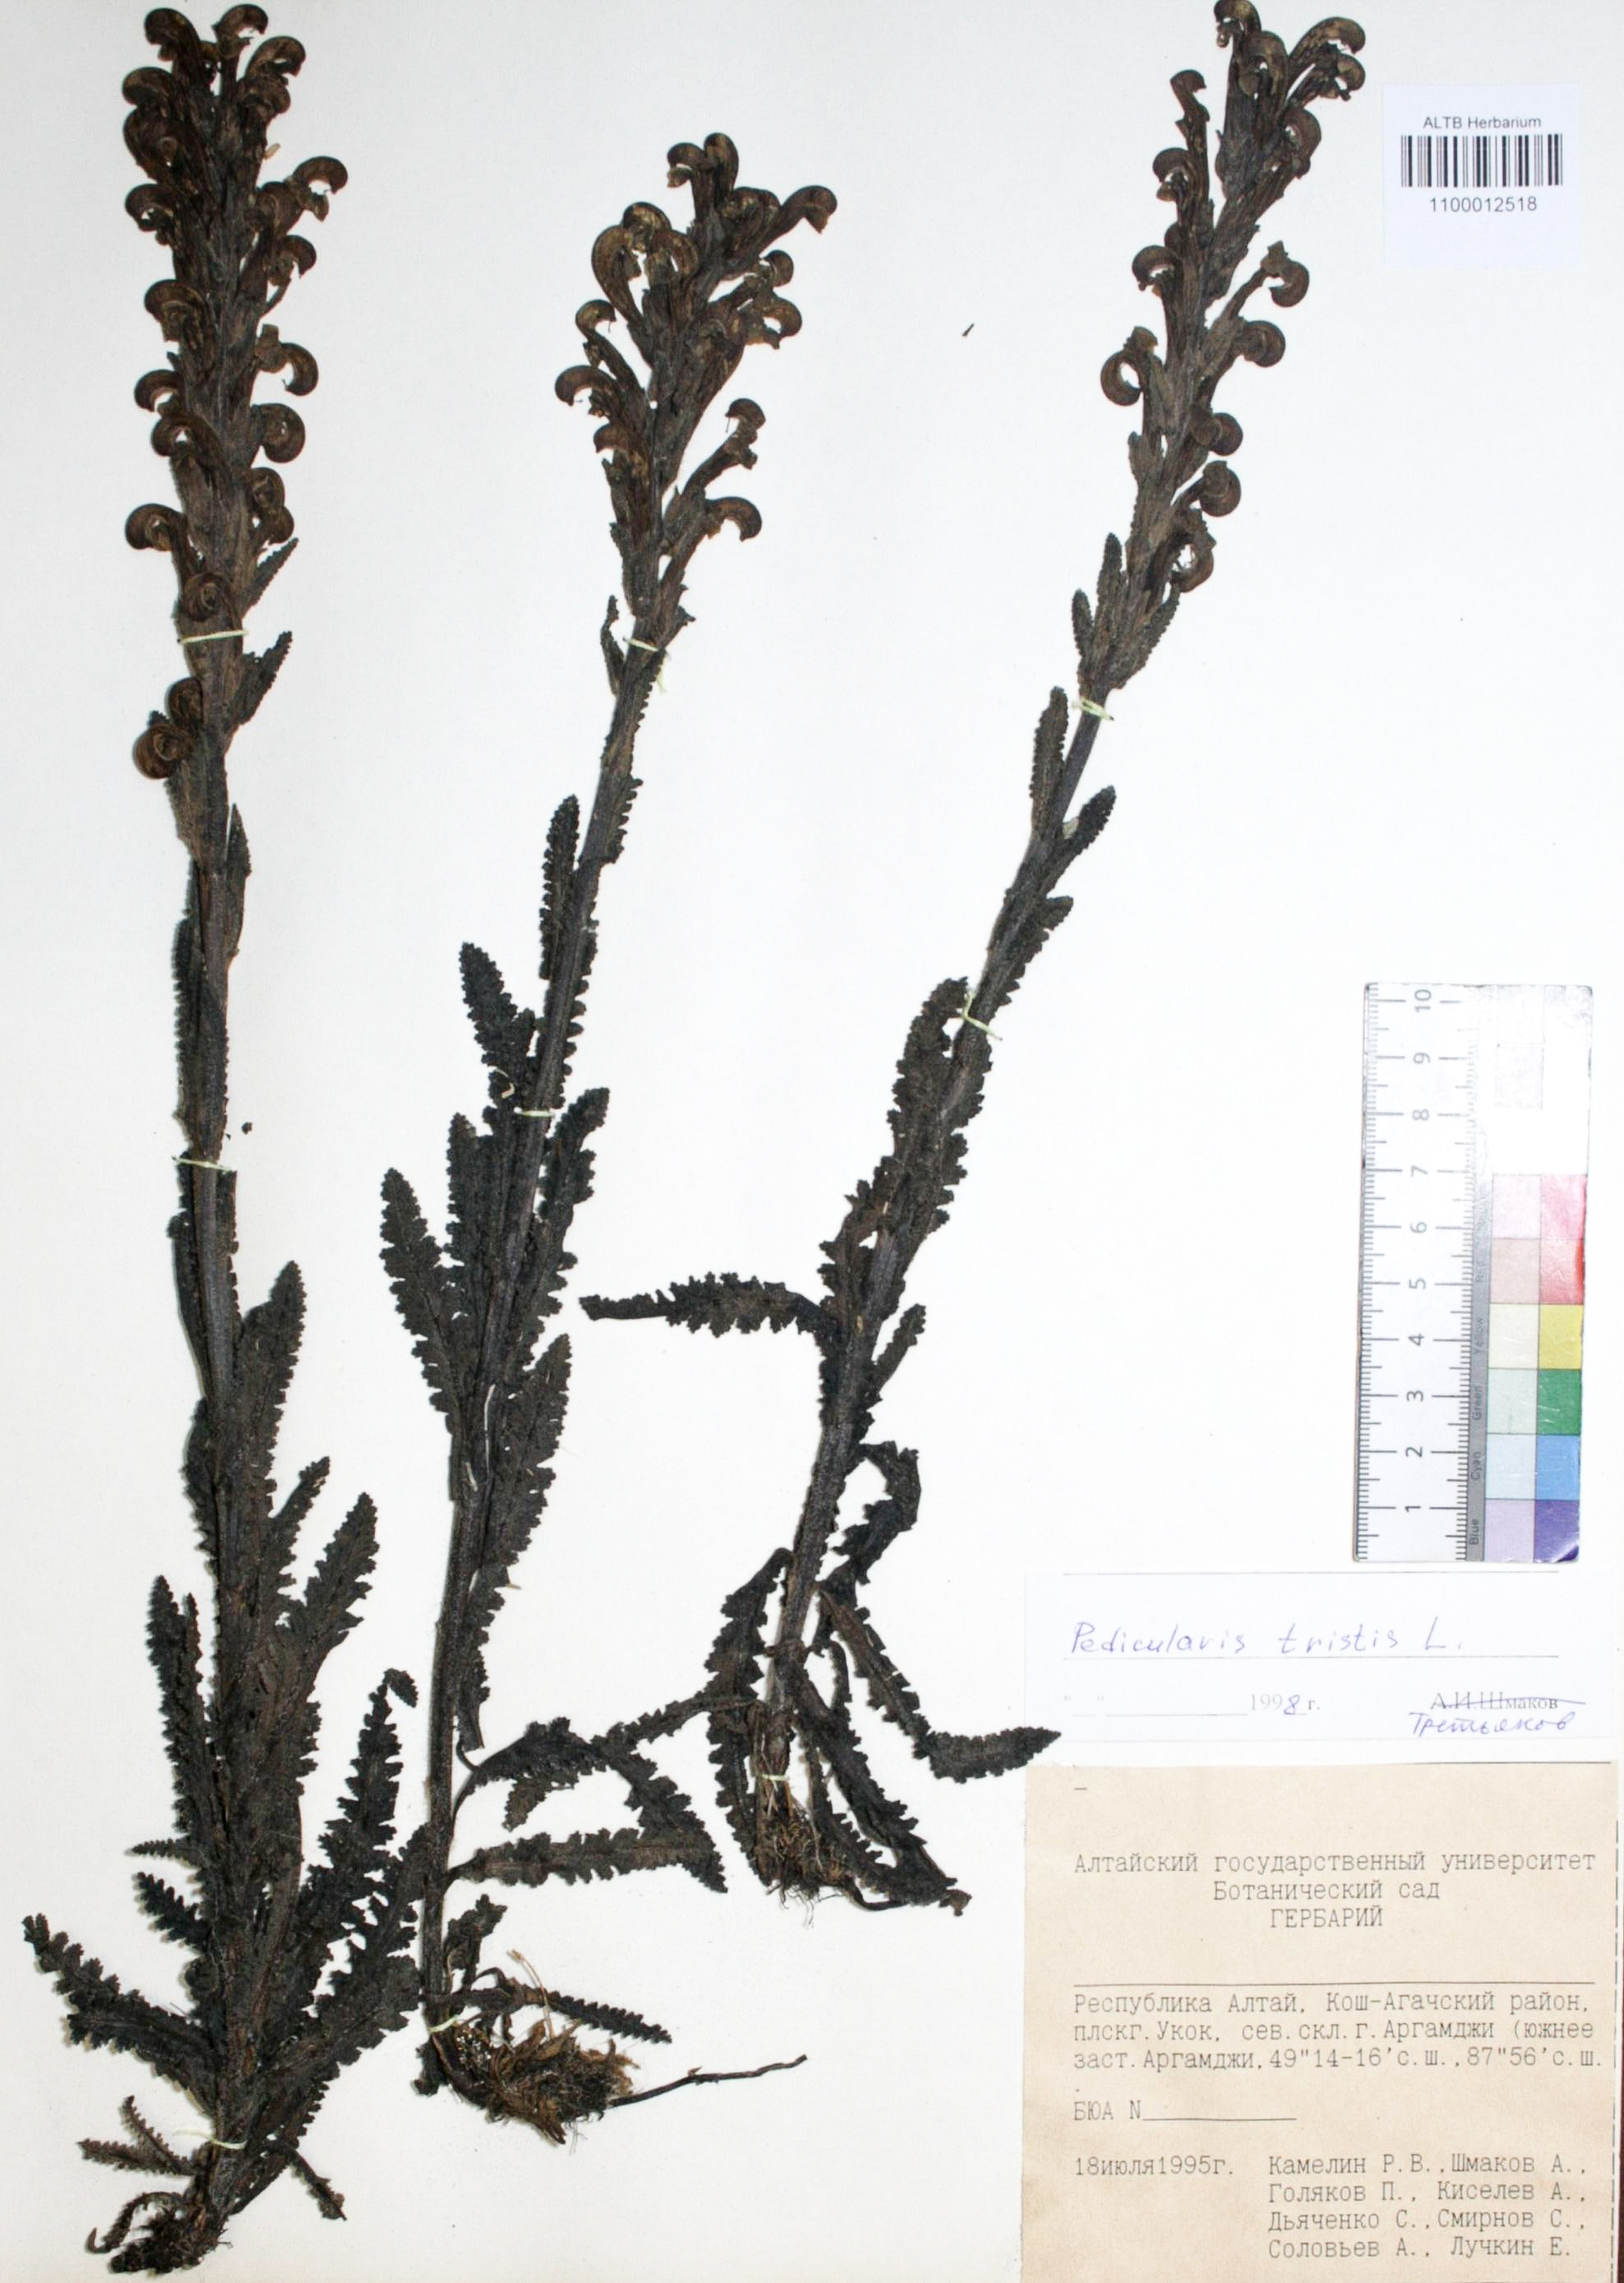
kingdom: Plantae
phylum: Tracheophyta
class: Magnoliopsida
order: Lamiales
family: Orobanchaceae
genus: Pedicularis
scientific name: Pedicularis tristis
